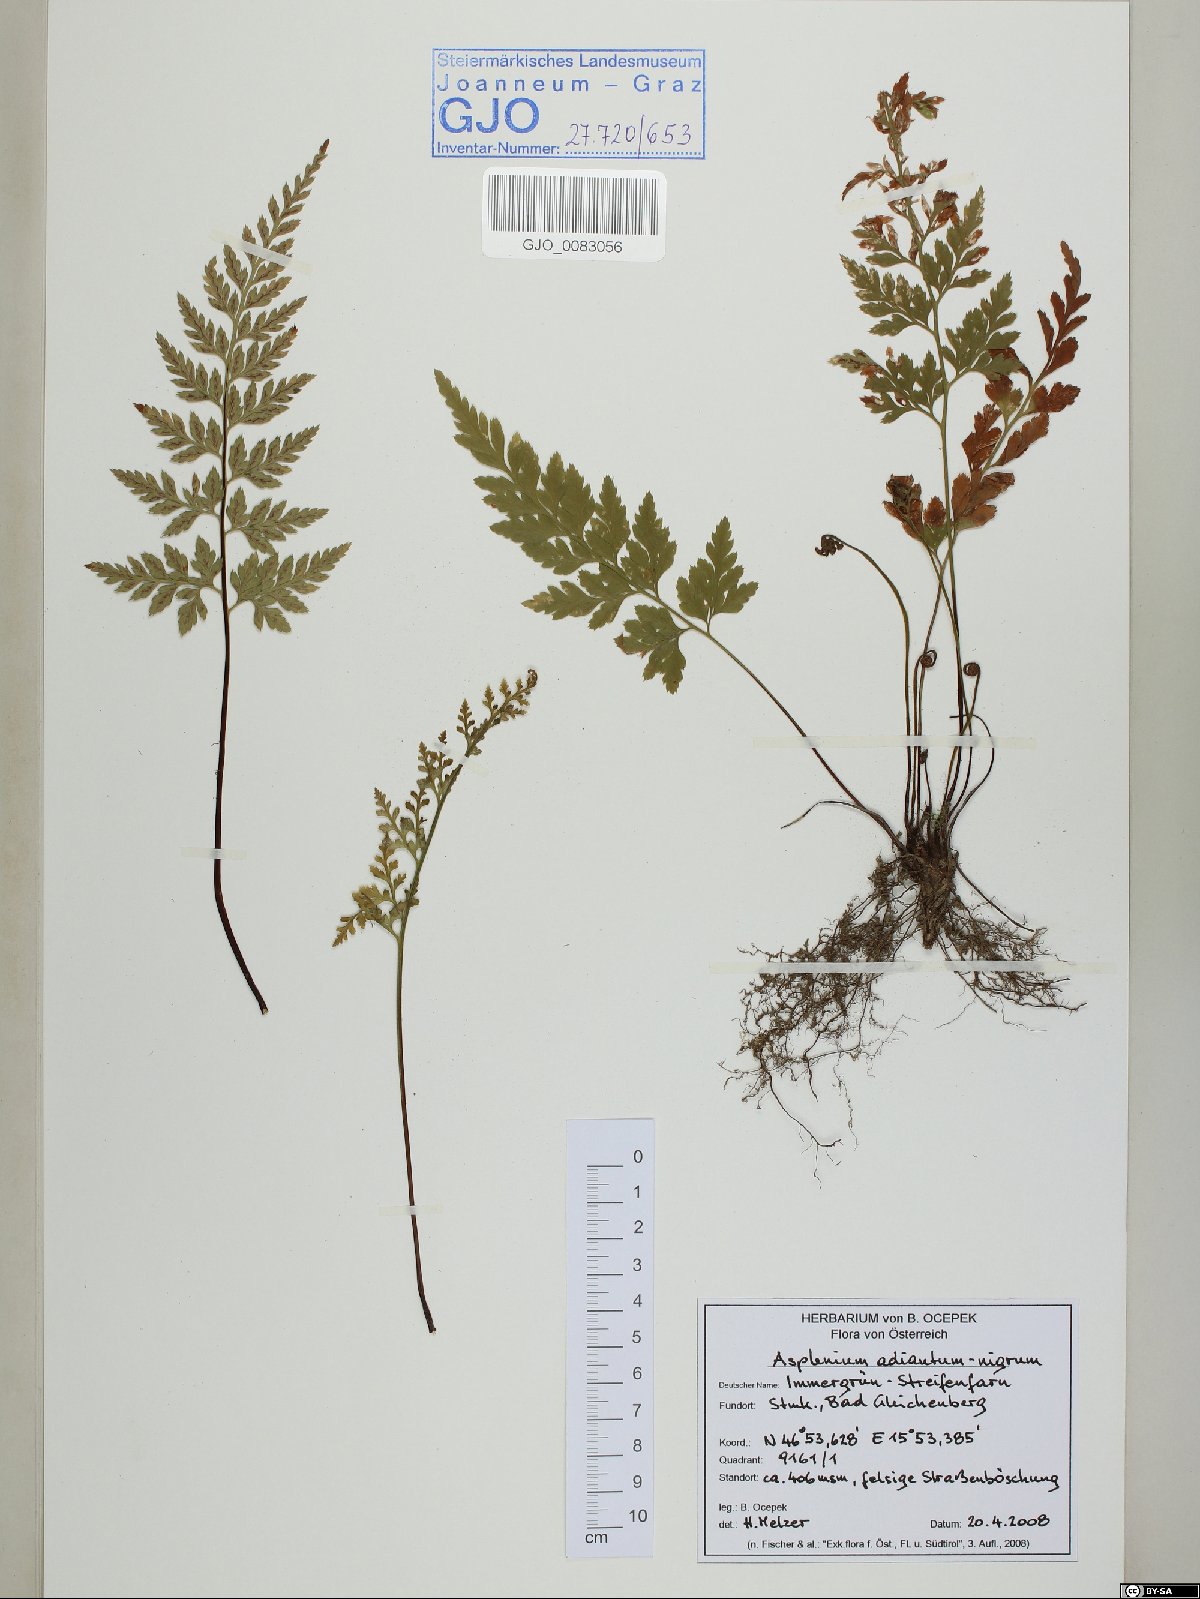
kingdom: Plantae
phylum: Tracheophyta
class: Polypodiopsida
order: Polypodiales
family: Aspleniaceae
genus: Asplenium
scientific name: Asplenium adiantum-nigrum
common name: Black spleenwort
